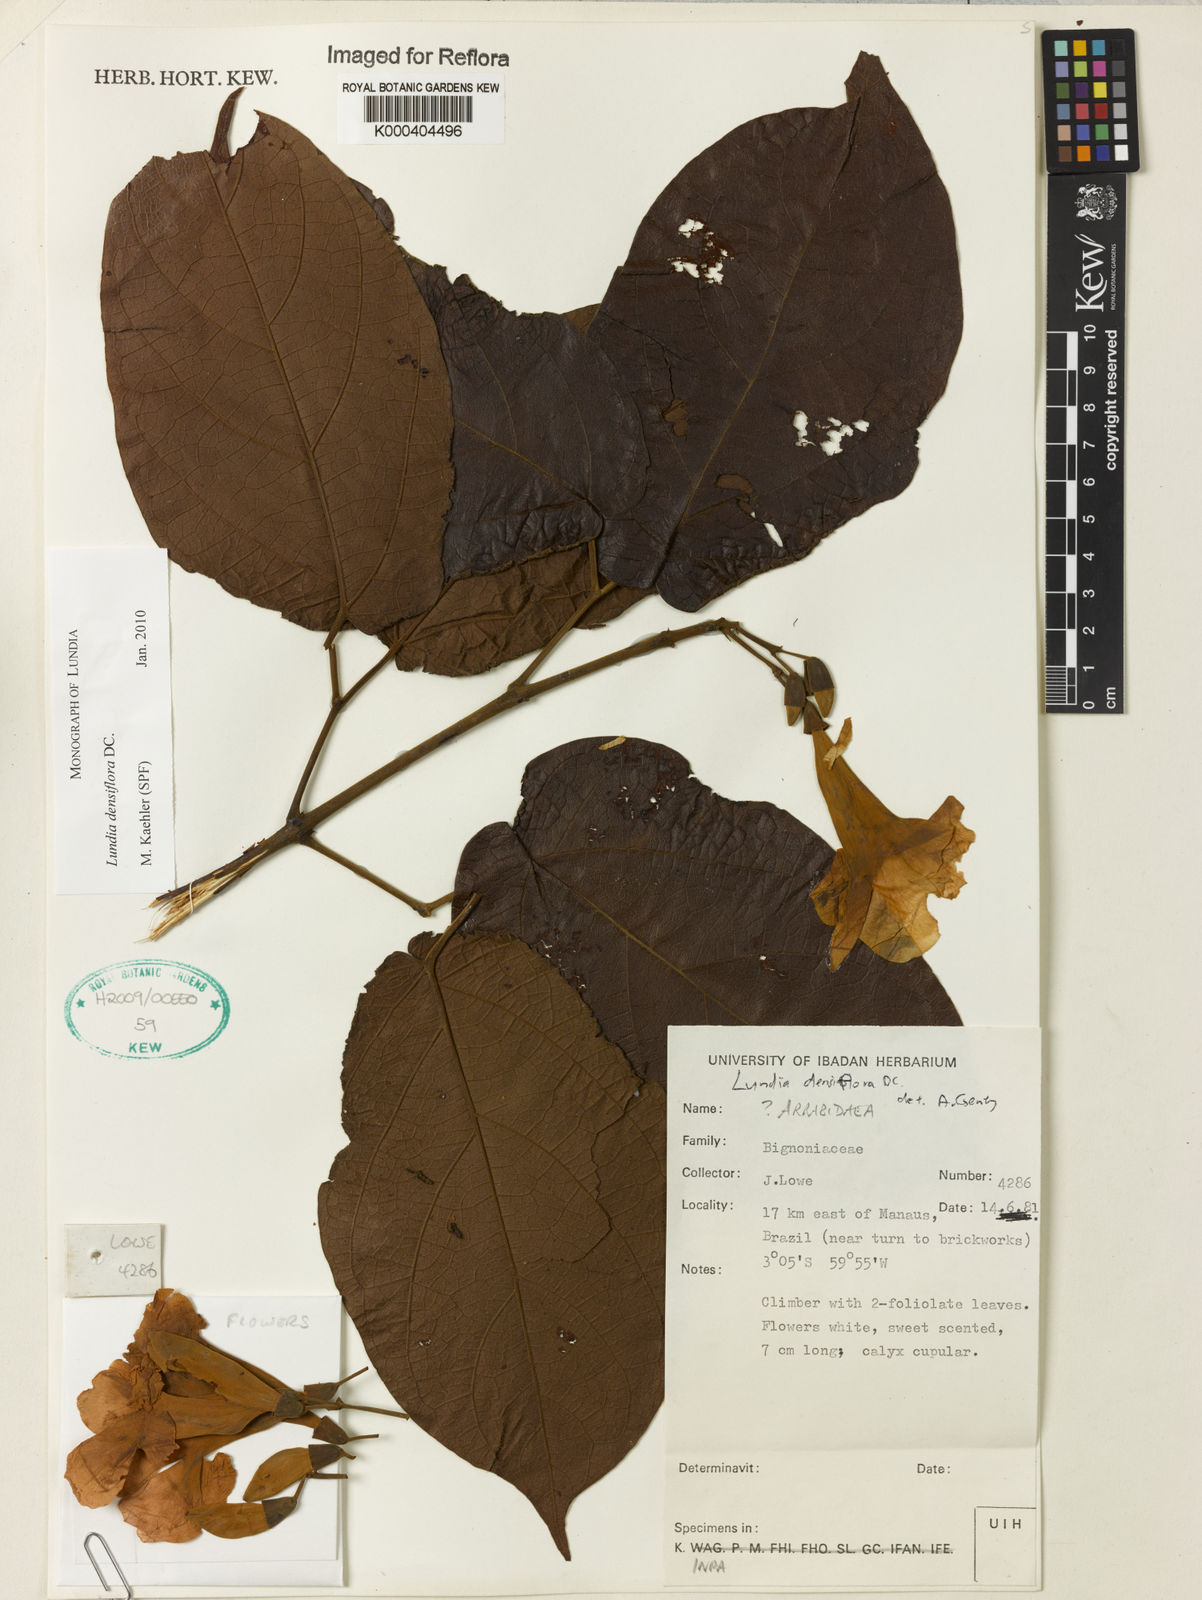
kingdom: Plantae
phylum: Tracheophyta
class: Magnoliopsida
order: Lamiales
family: Bignoniaceae
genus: Lundia
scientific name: Lundia densiflora
